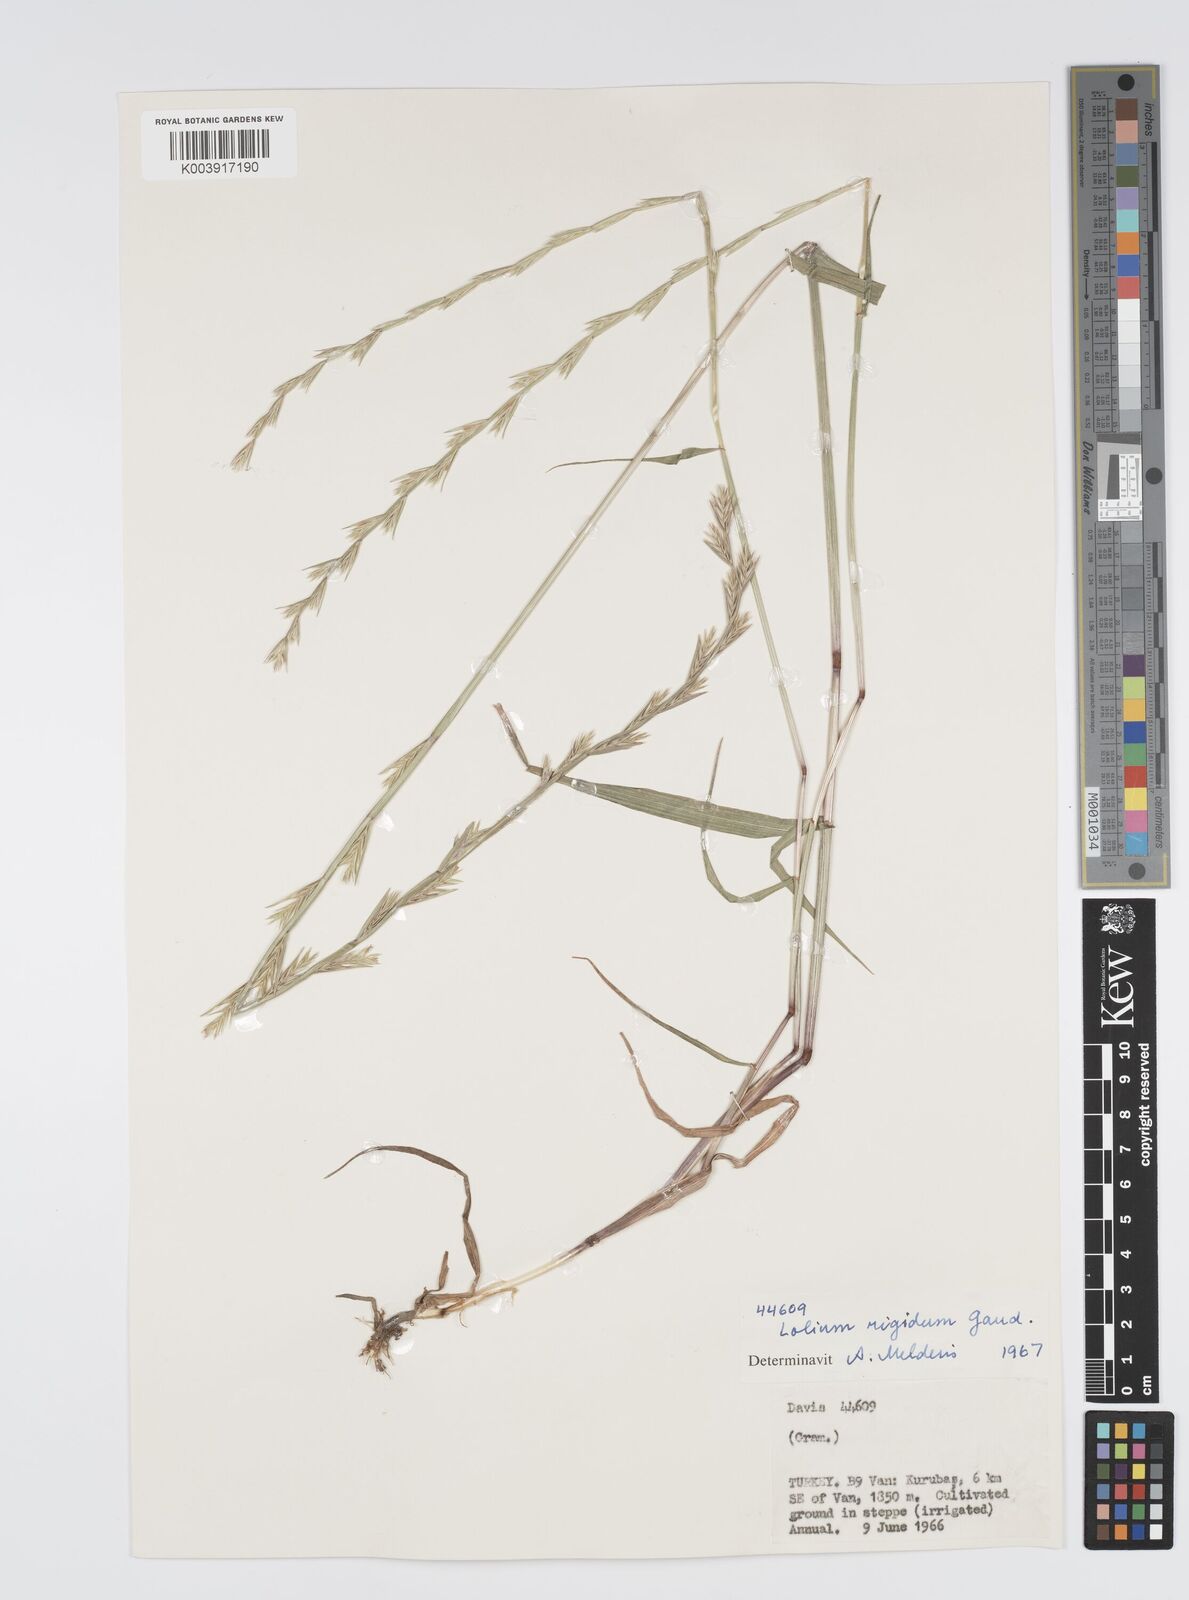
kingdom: Plantae
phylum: Tracheophyta
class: Liliopsida
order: Poales
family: Poaceae
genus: Lolium
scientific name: Lolium rigidum
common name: Wimmera ryegrass
